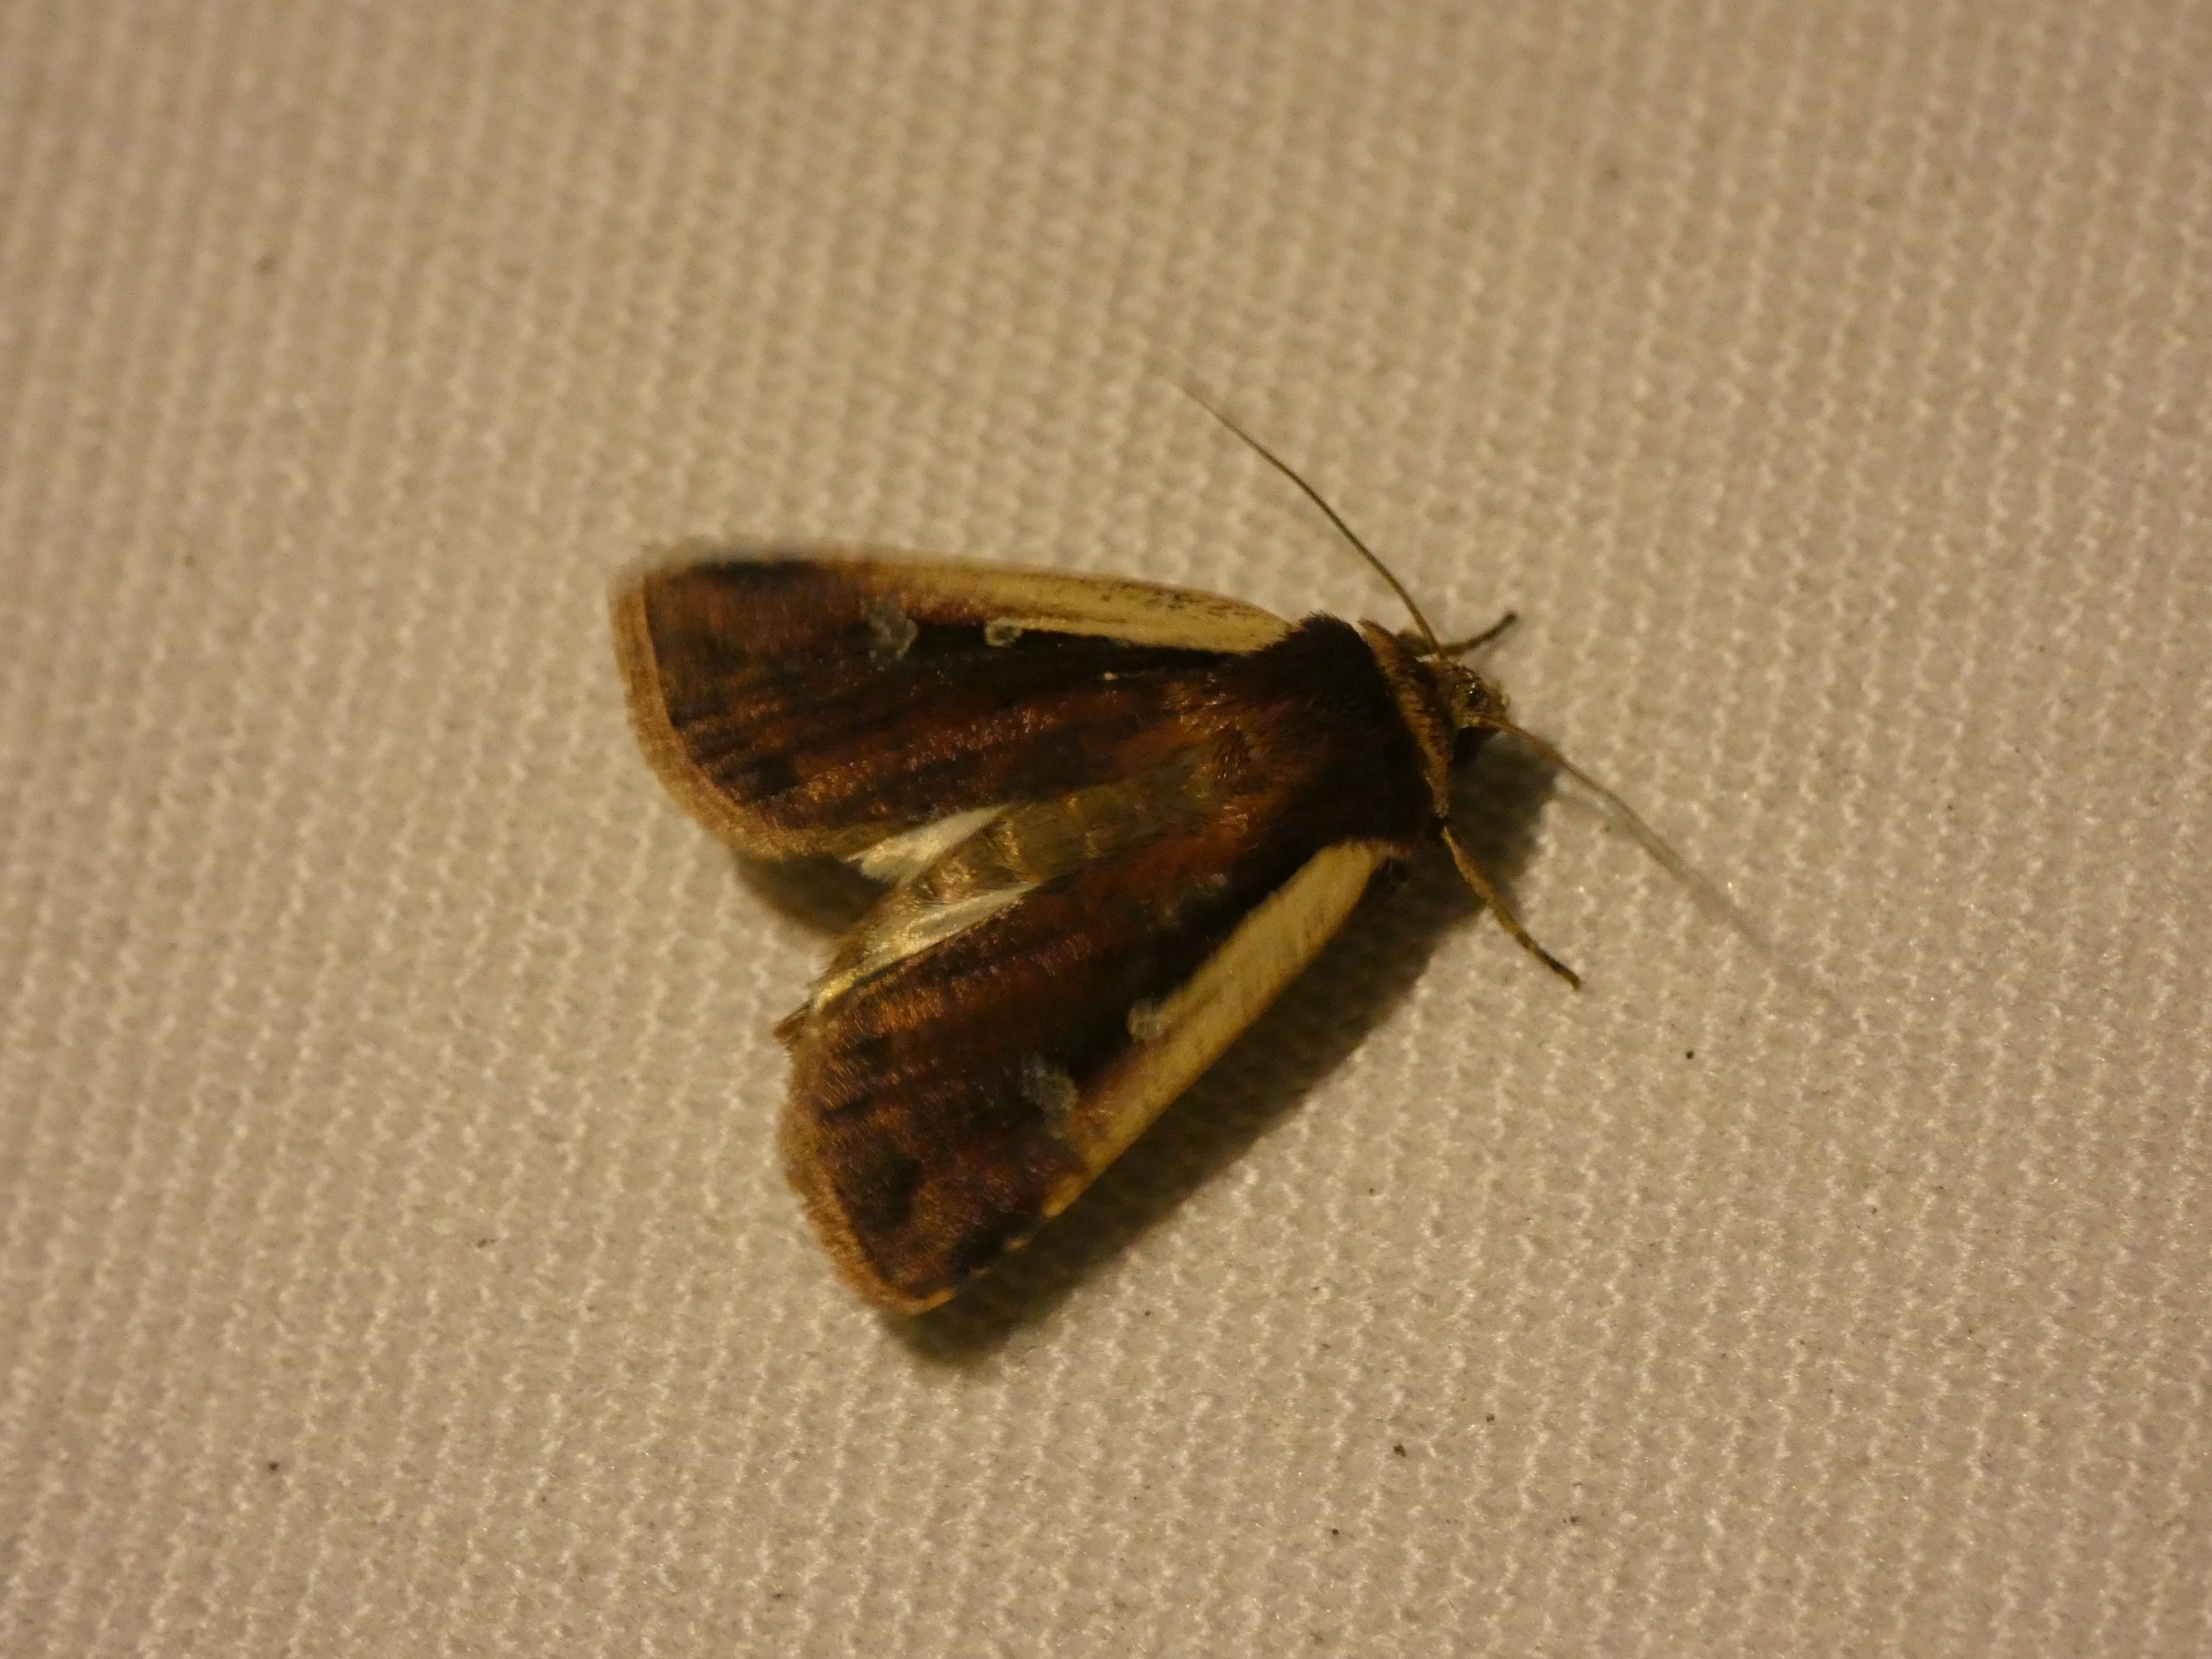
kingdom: Animalia
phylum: Arthropoda
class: Insecta
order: Lepidoptera
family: Noctuidae
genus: Ochropleura
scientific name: Ochropleura plecta
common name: Hvidrandet jordugle
